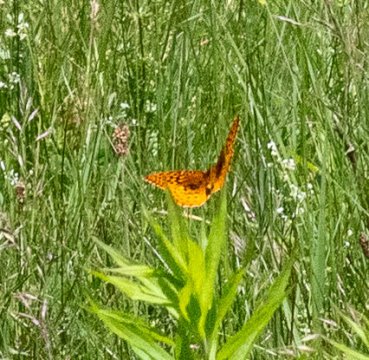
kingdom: Animalia
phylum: Arthropoda
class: Insecta
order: Lepidoptera
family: Nymphalidae
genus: Speyeria
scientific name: Speyeria cybele
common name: Great Spangled Fritillary
